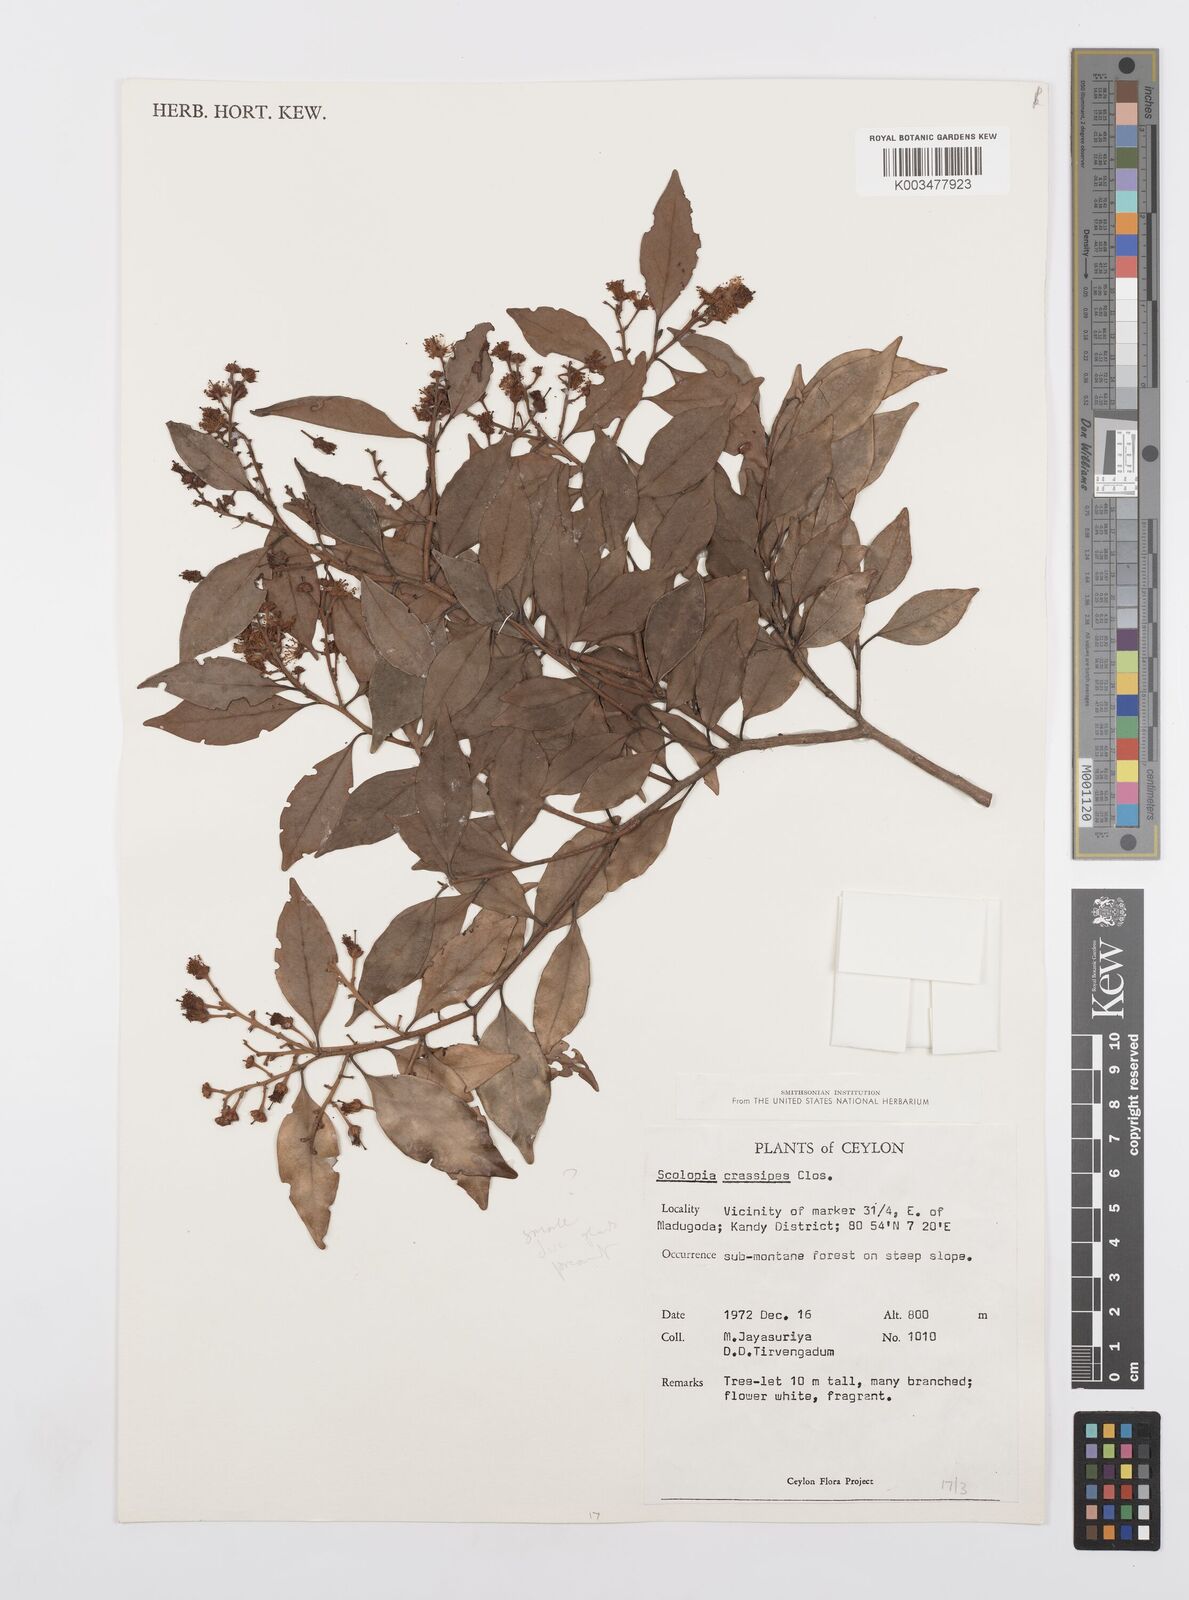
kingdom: Plantae
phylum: Tracheophyta
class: Magnoliopsida
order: Malpighiales
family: Salicaceae
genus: Scolopia
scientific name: Scolopia crassipes
